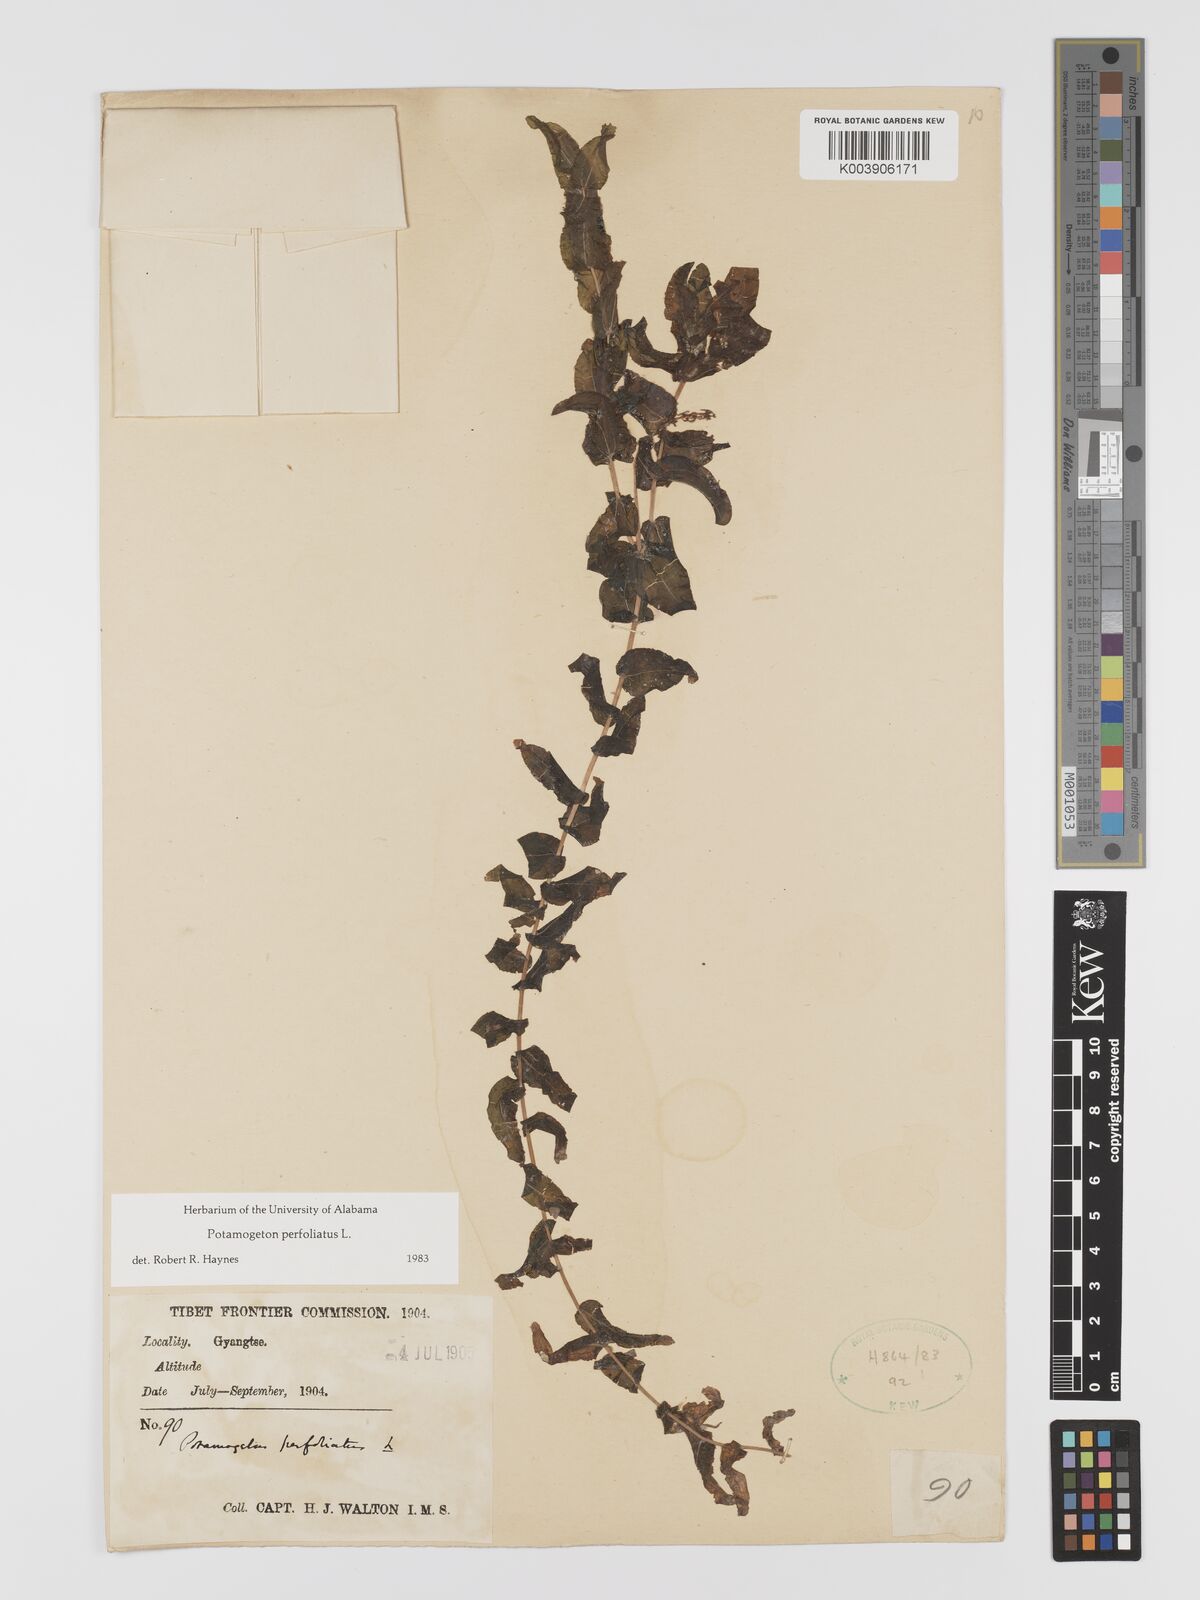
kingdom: Plantae
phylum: Tracheophyta
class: Liliopsida
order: Alismatales
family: Potamogetonaceae
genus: Potamogeton
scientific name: Potamogeton perfoliatus
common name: Perfoliate pondweed
